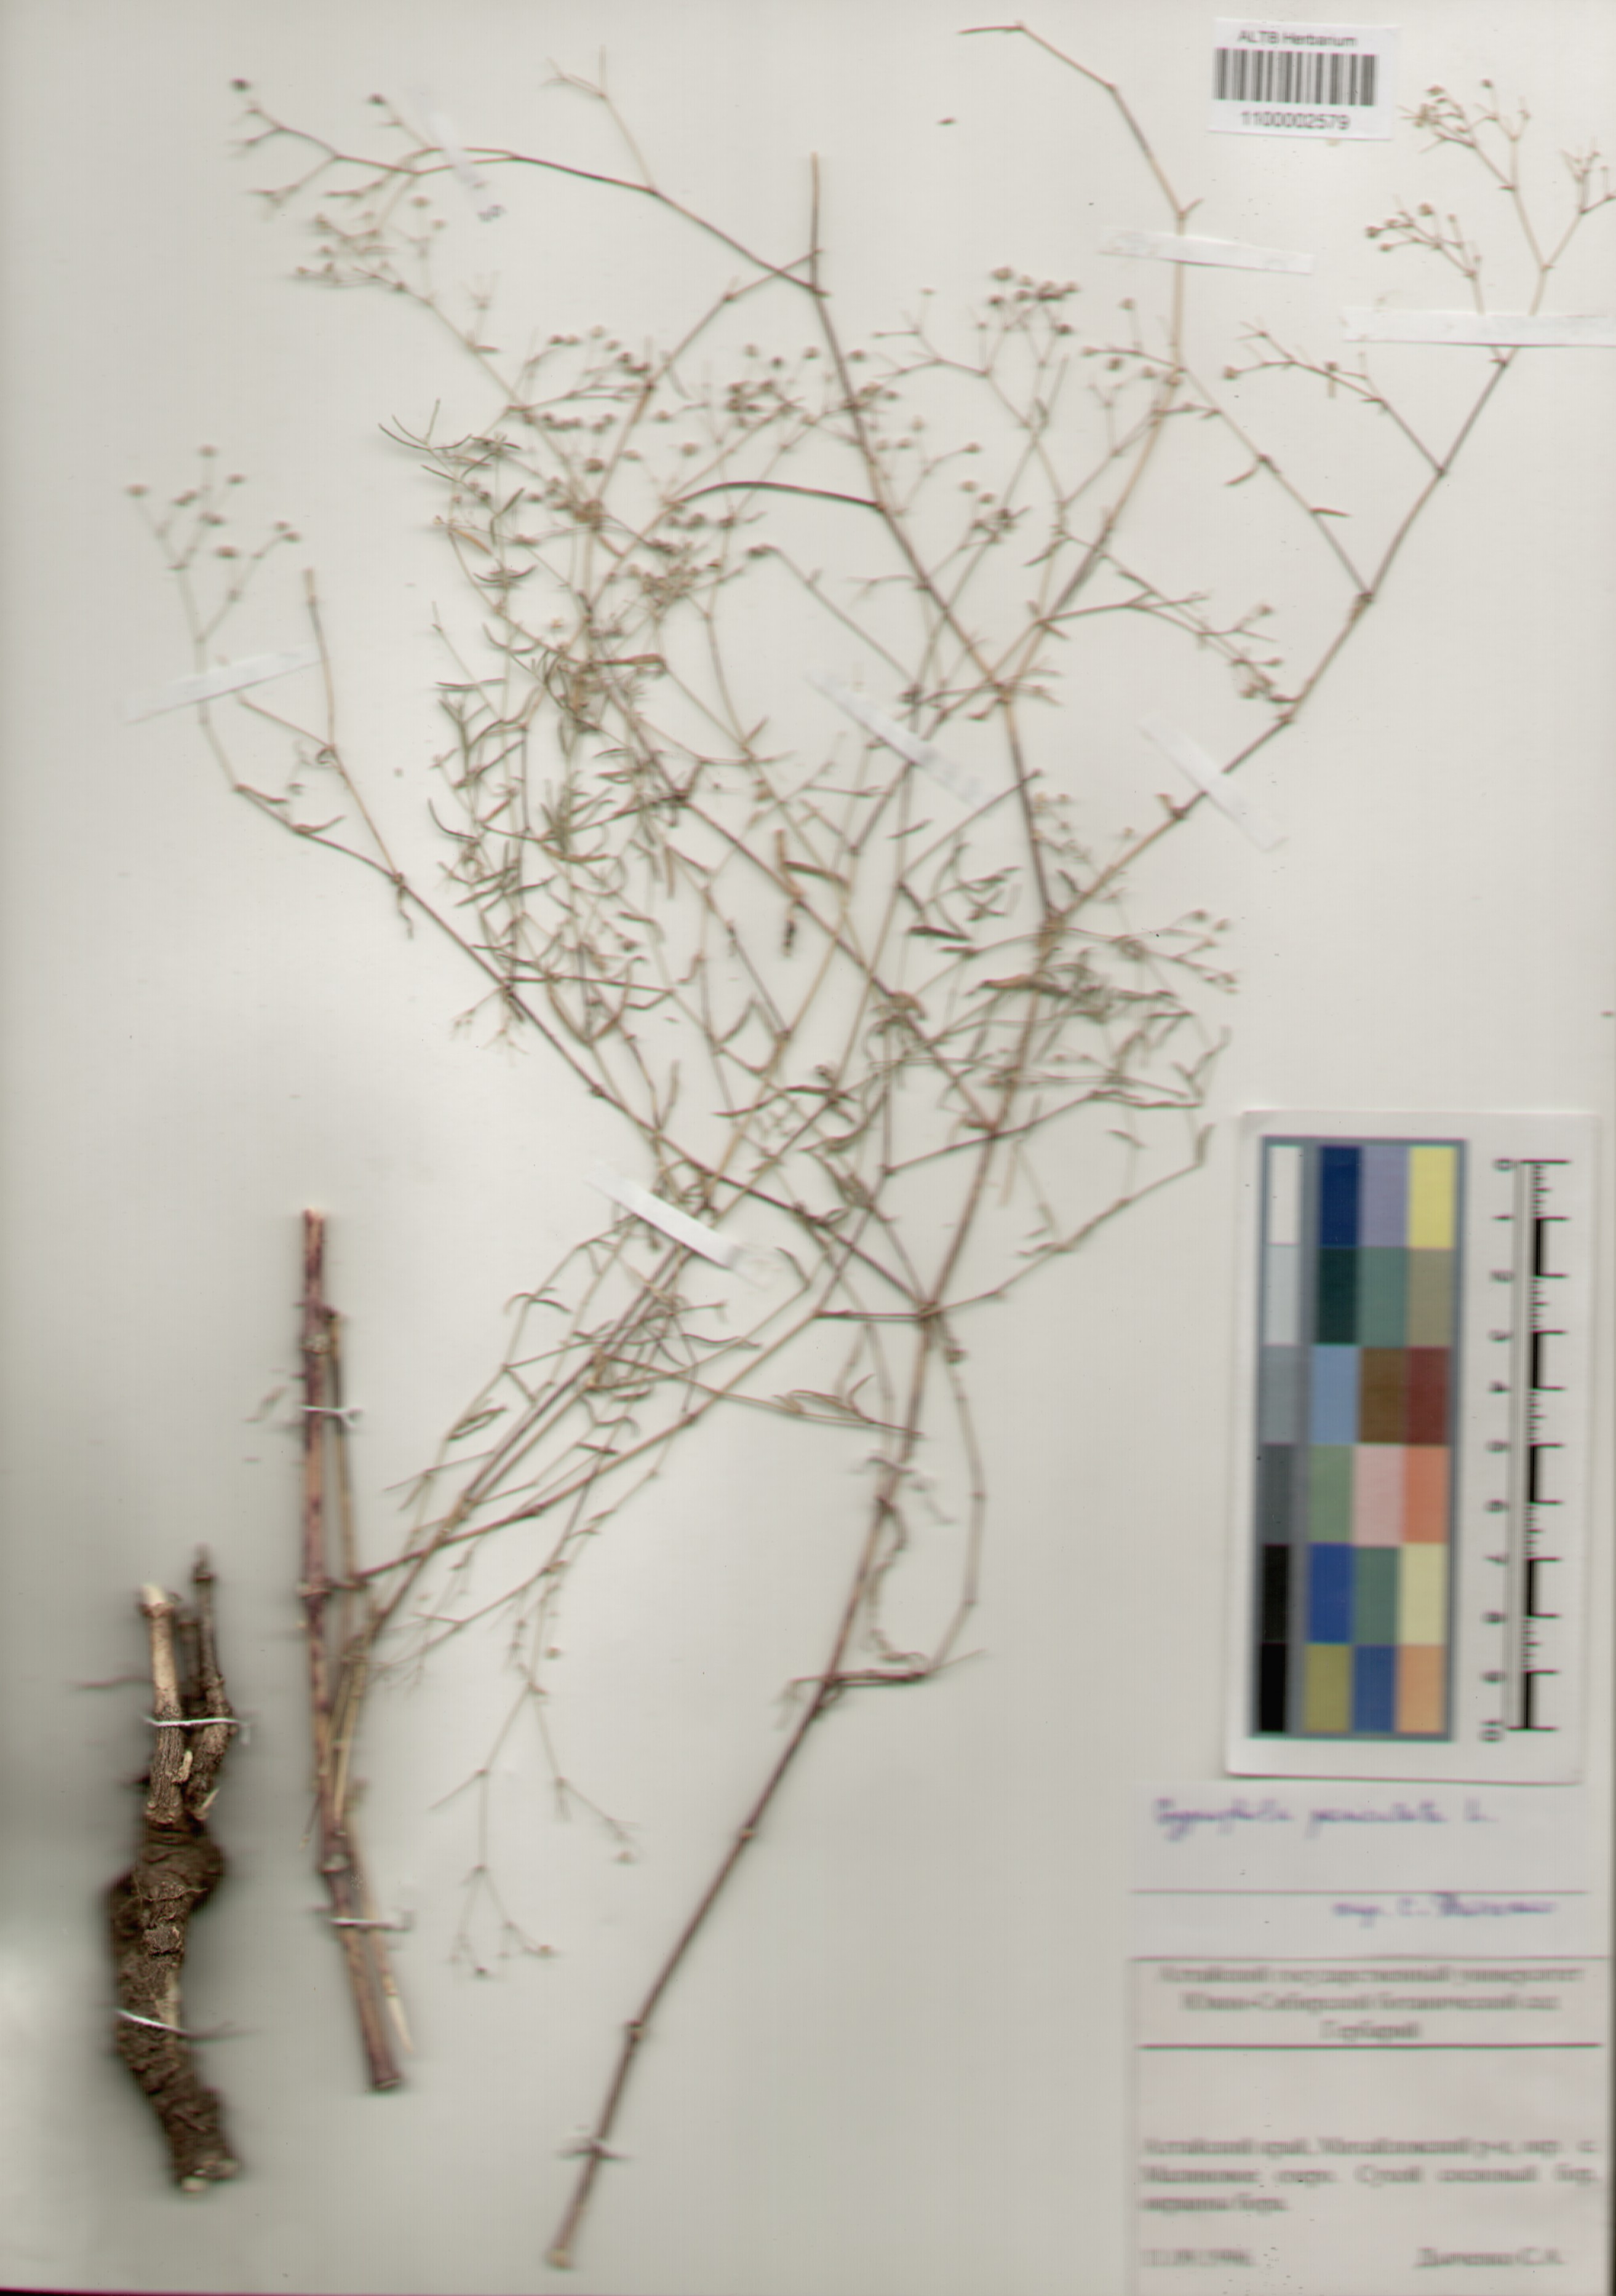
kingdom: Plantae
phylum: Tracheophyta
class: Magnoliopsida
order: Caryophyllales
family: Caryophyllaceae
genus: Gypsophila
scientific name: Gypsophila paniculata
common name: Baby's-breath
